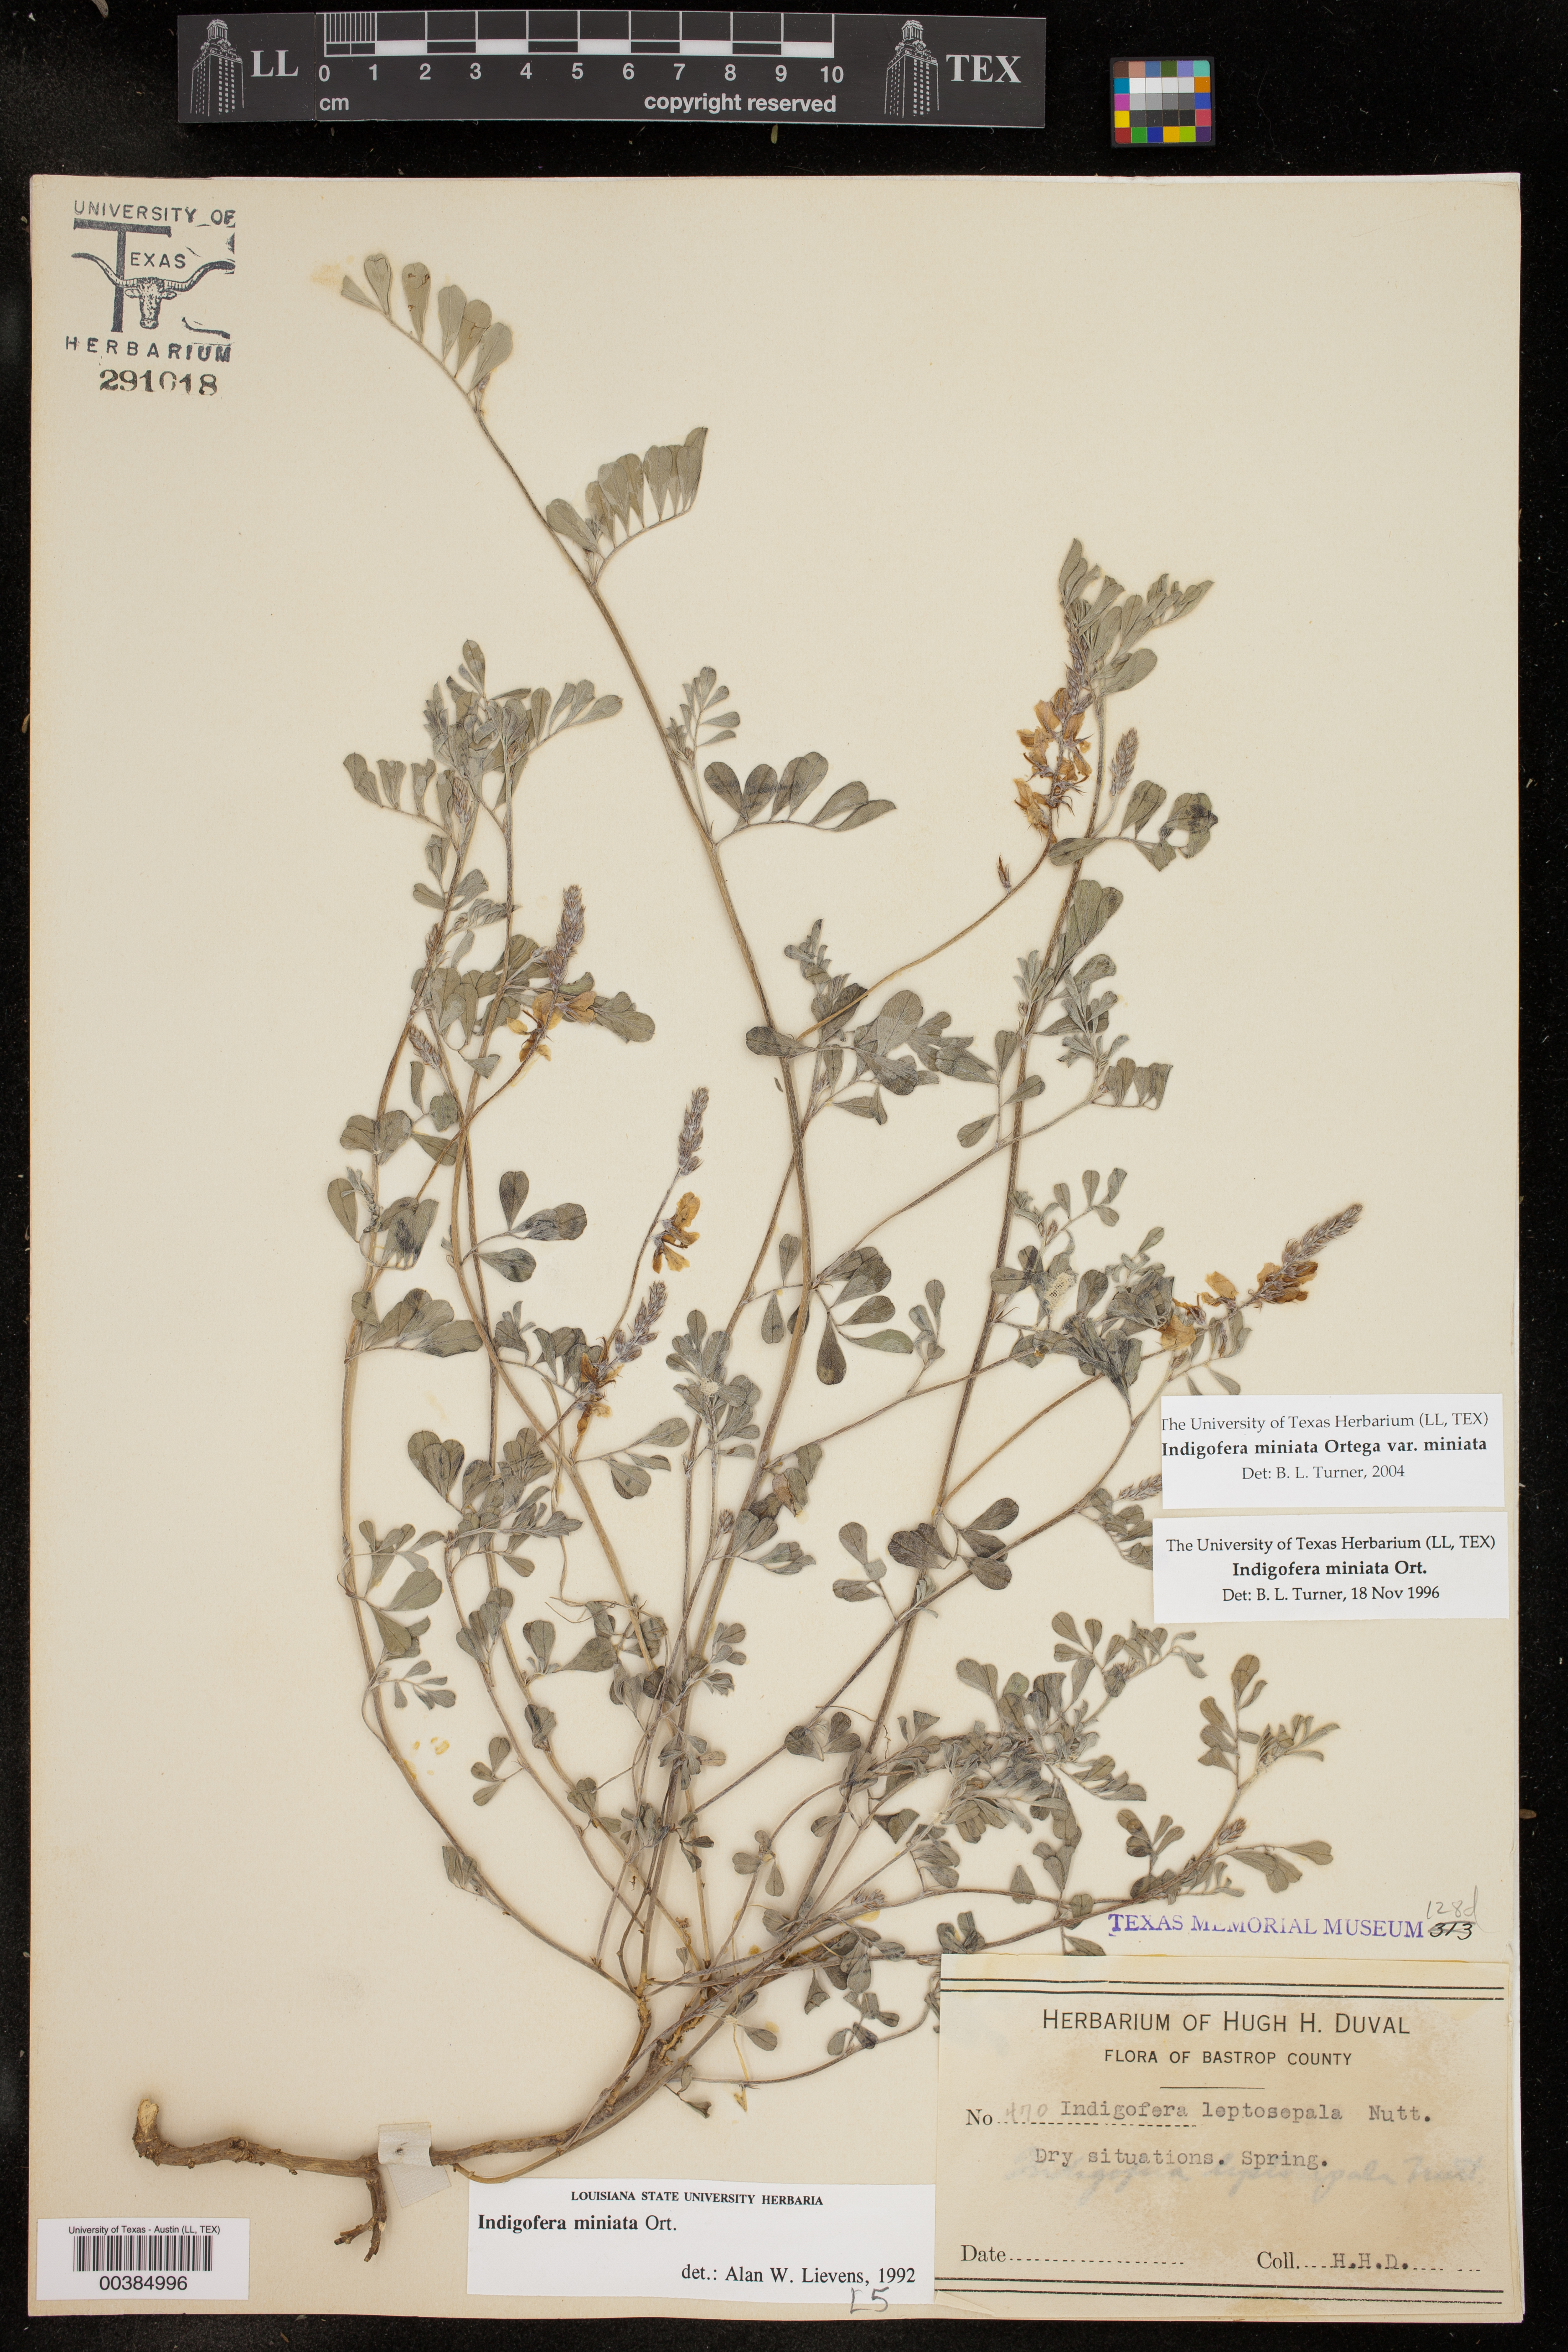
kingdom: Plantae
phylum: Tracheophyta
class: Magnoliopsida
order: Fabales
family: Fabaceae
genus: Indigofera
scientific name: Indigofera miniata
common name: Coast indigo
